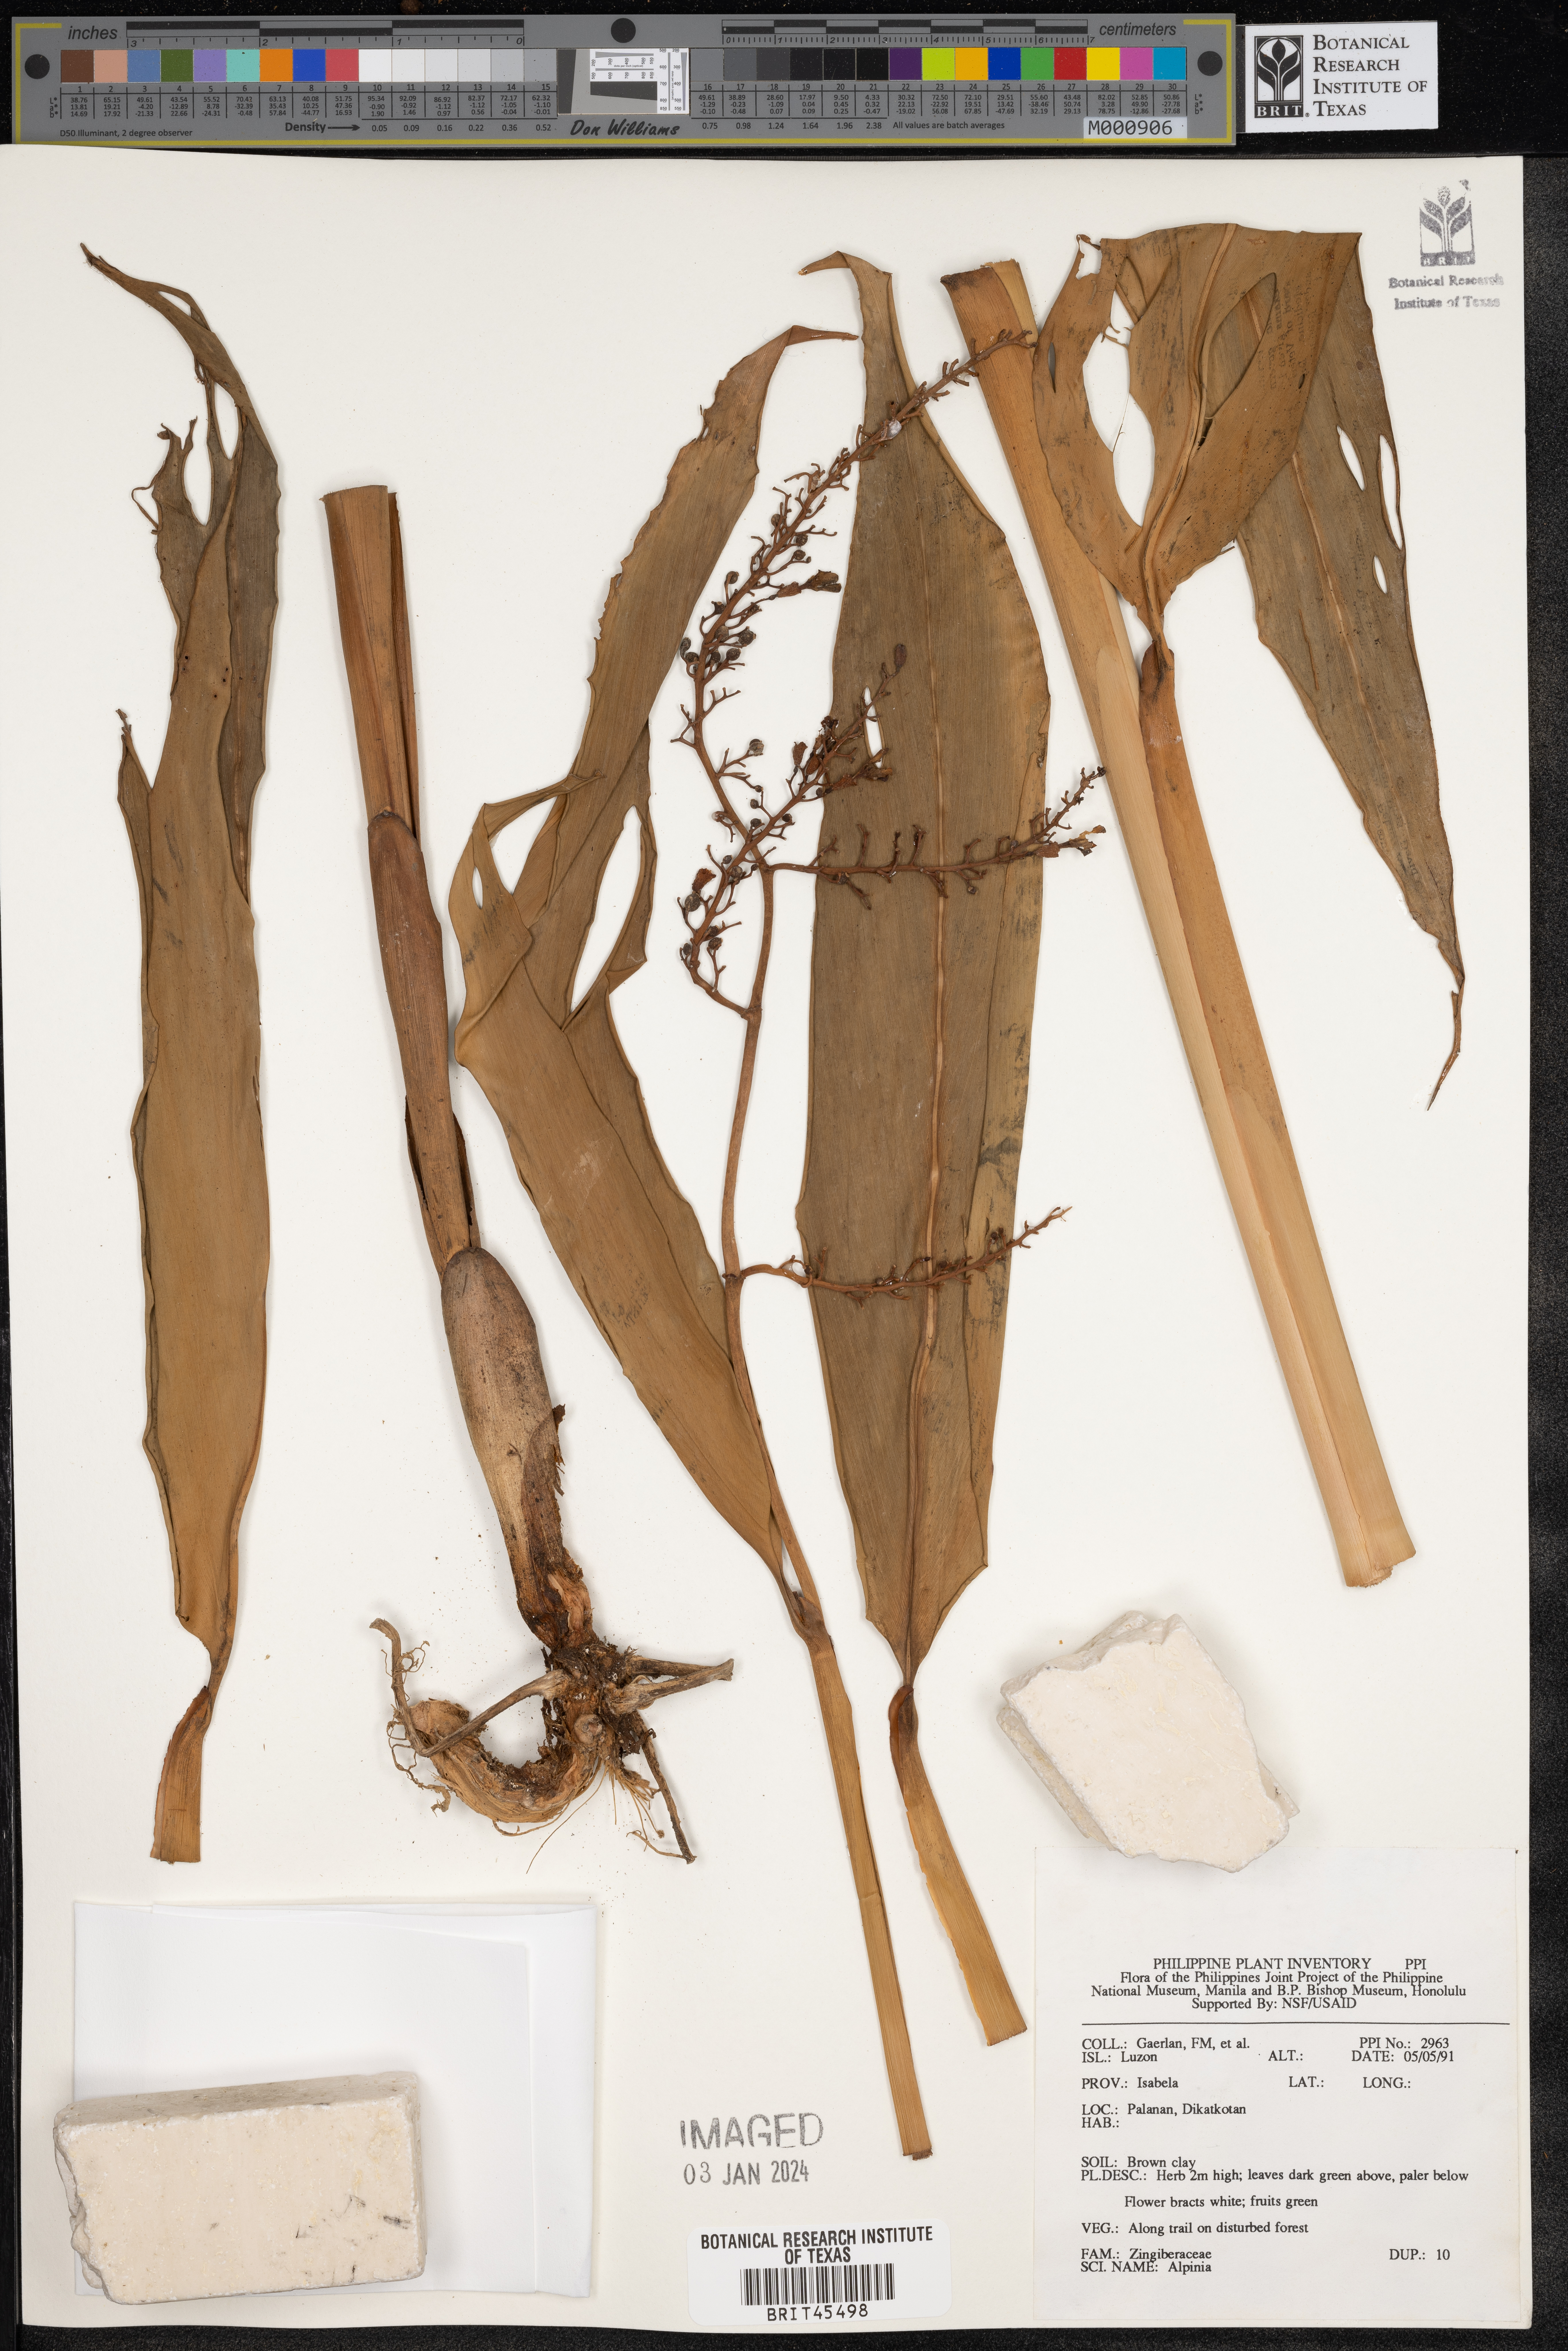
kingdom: Plantae
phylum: Tracheophyta
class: Liliopsida
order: Zingiberales
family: Zingiberaceae
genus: Alpinia
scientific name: Alpinia
